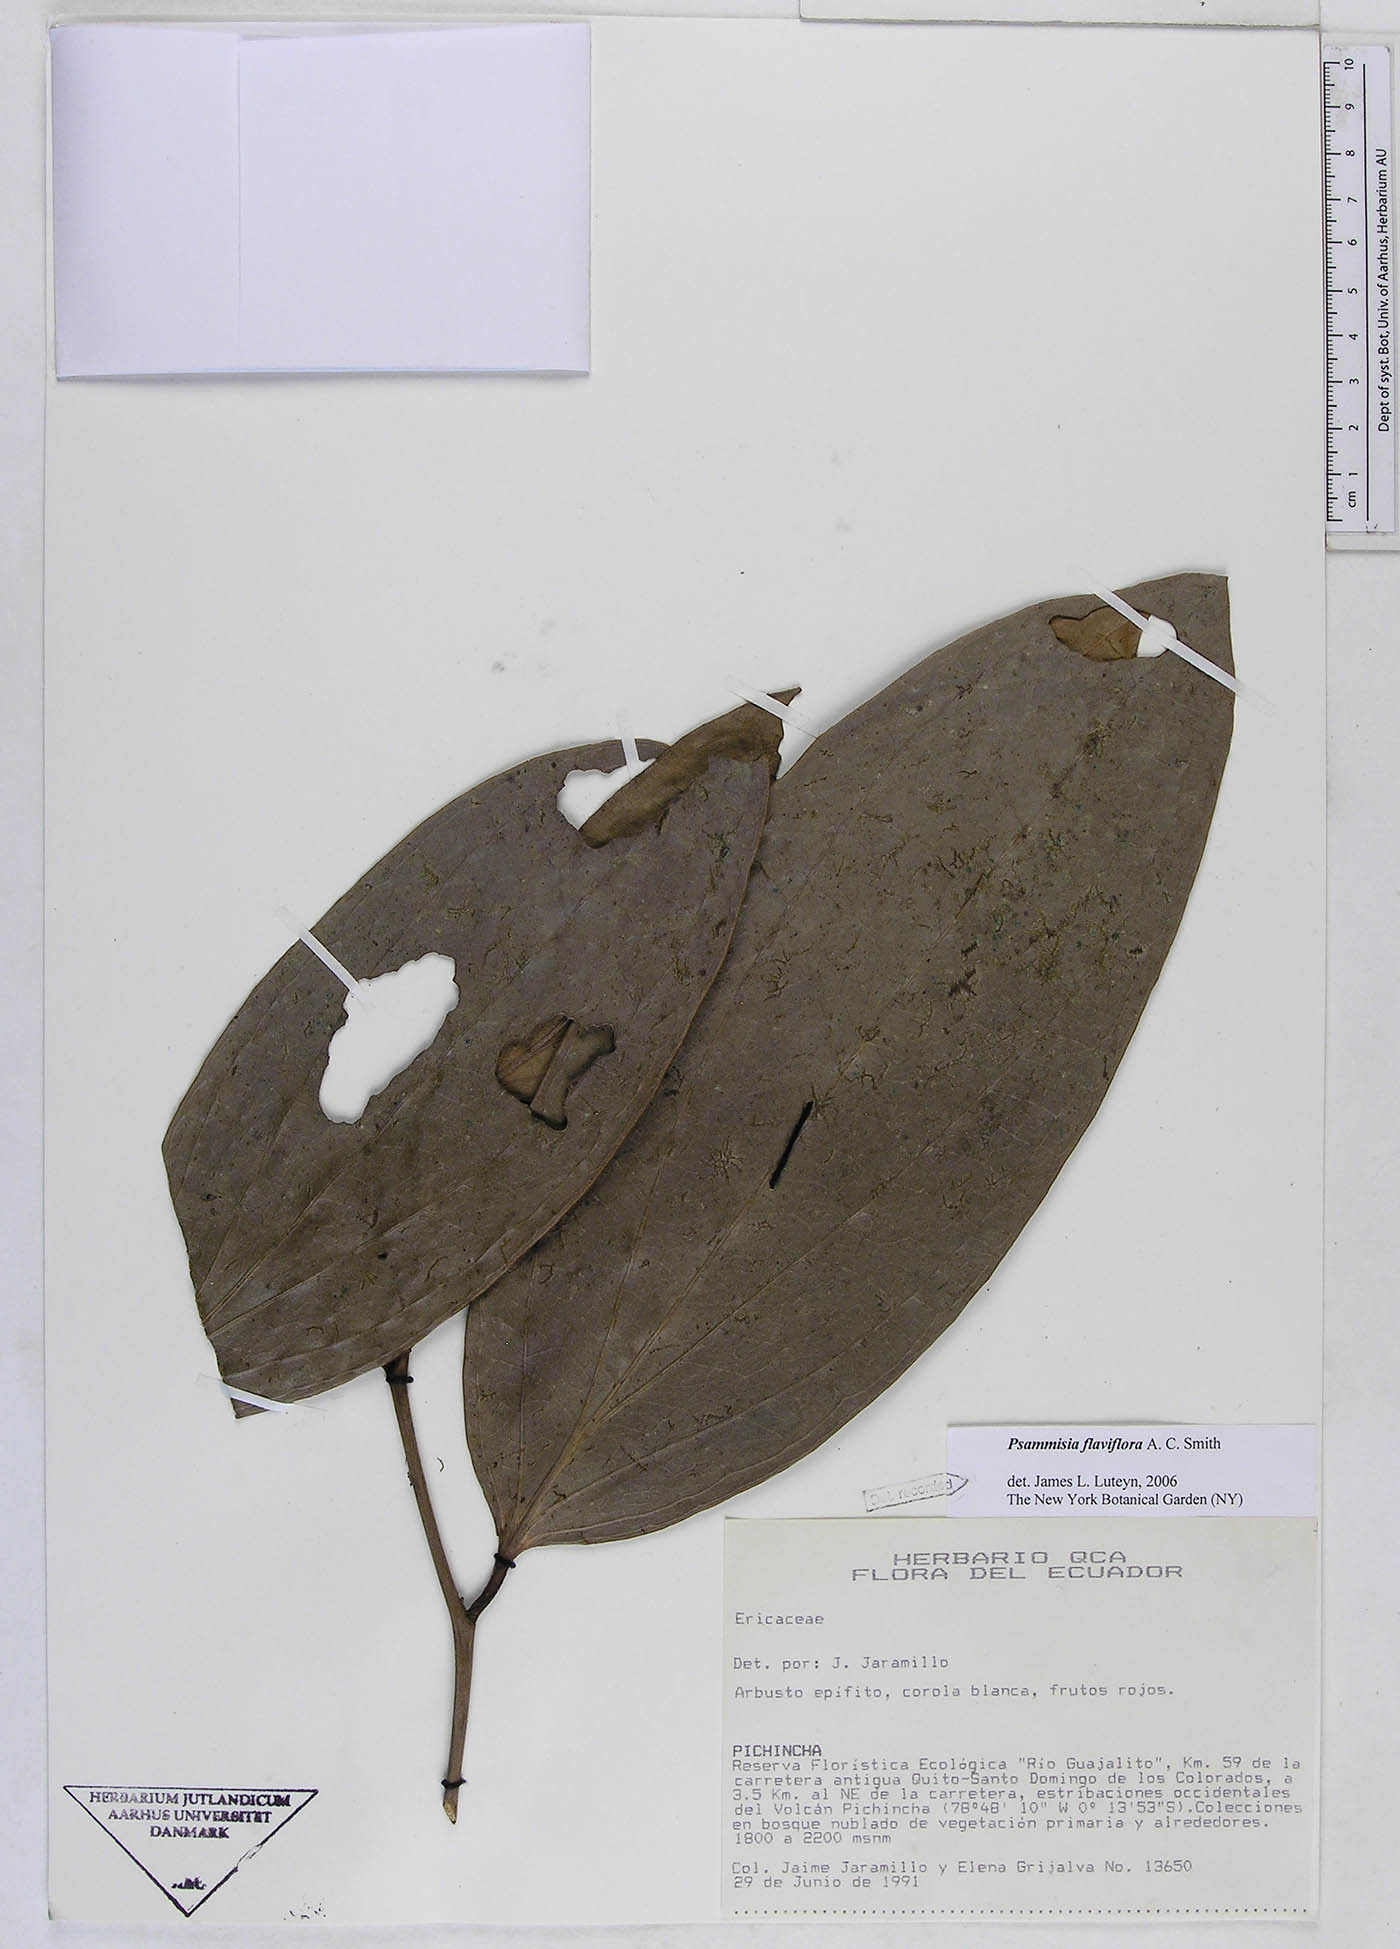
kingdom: Plantae
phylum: Tracheophyta
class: Magnoliopsida
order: Ericales
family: Ericaceae
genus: Psammisia
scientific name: Psammisia flaviflora
